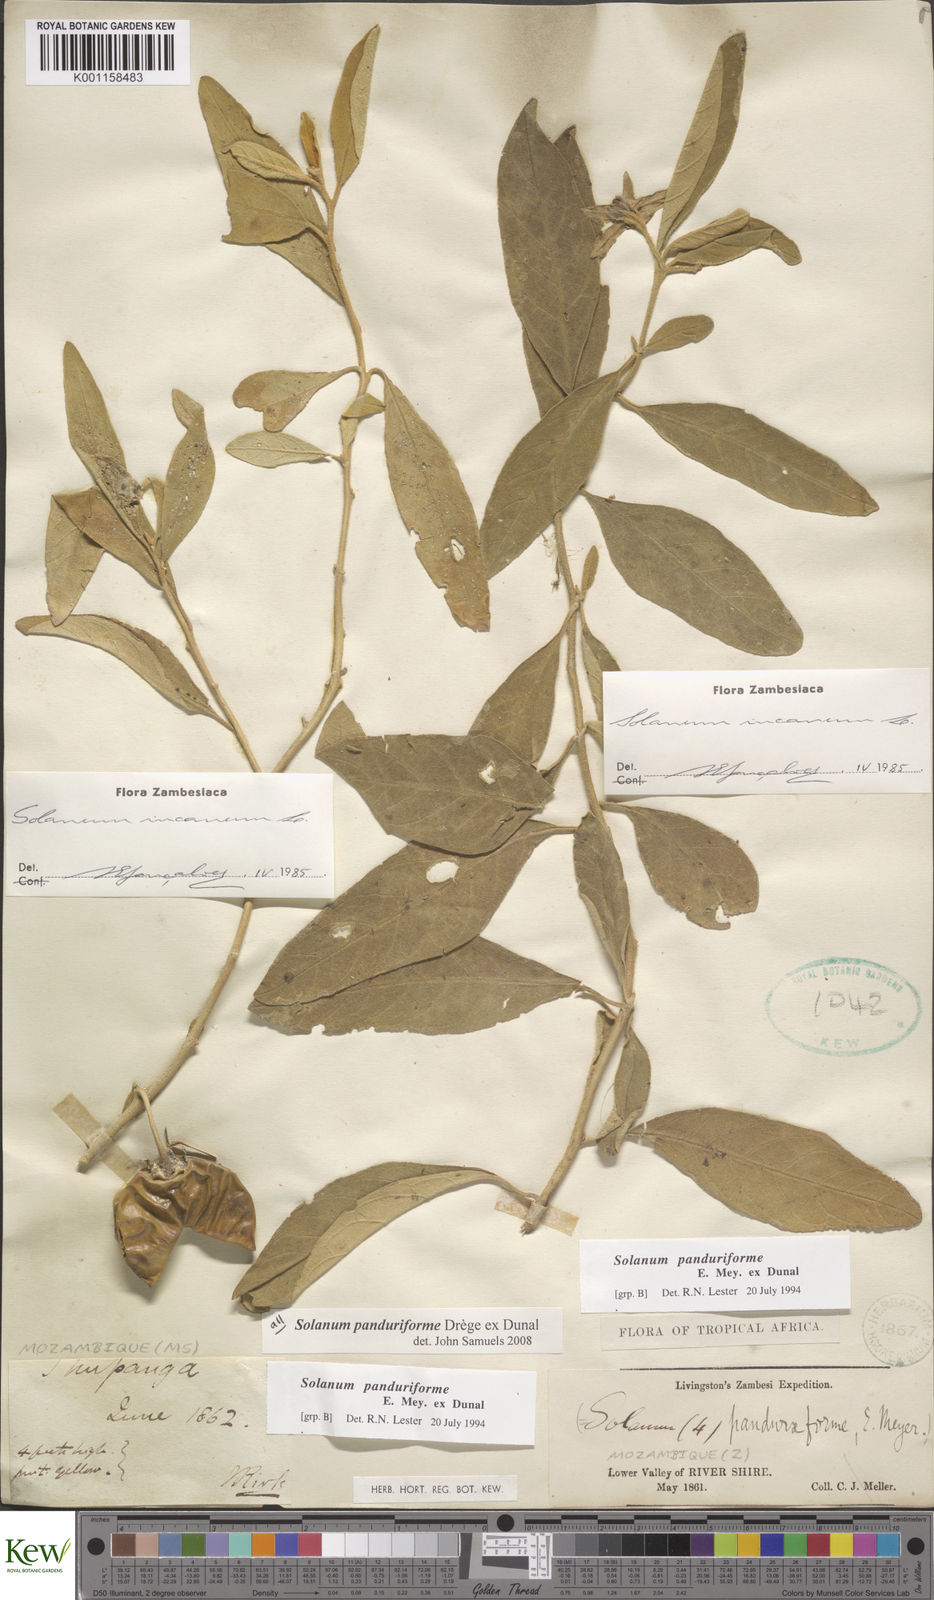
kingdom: Plantae
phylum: Tracheophyta
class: Magnoliopsida
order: Solanales
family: Solanaceae
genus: Solanum
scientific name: Solanum campylacanthum
